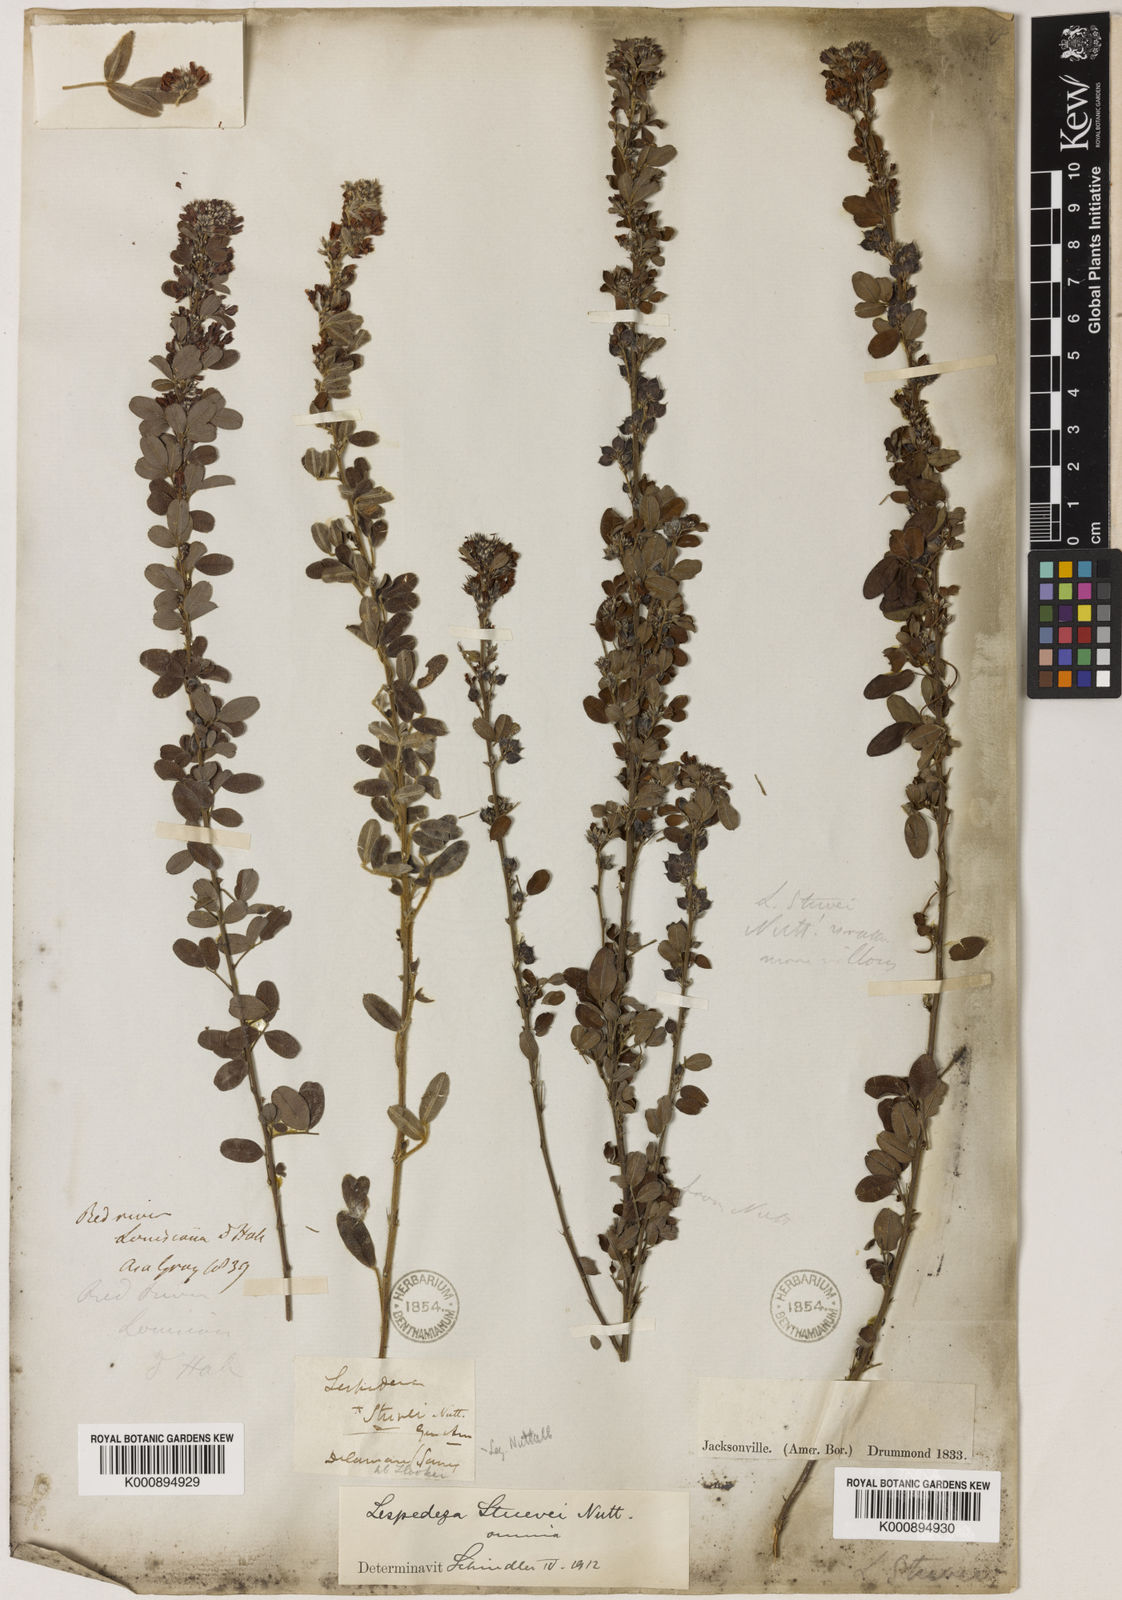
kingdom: Plantae
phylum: Tracheophyta
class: Magnoliopsida
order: Fabales
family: Fabaceae
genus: Lespedeza
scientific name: Lespedeza stuevei
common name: Tall bush-clover
